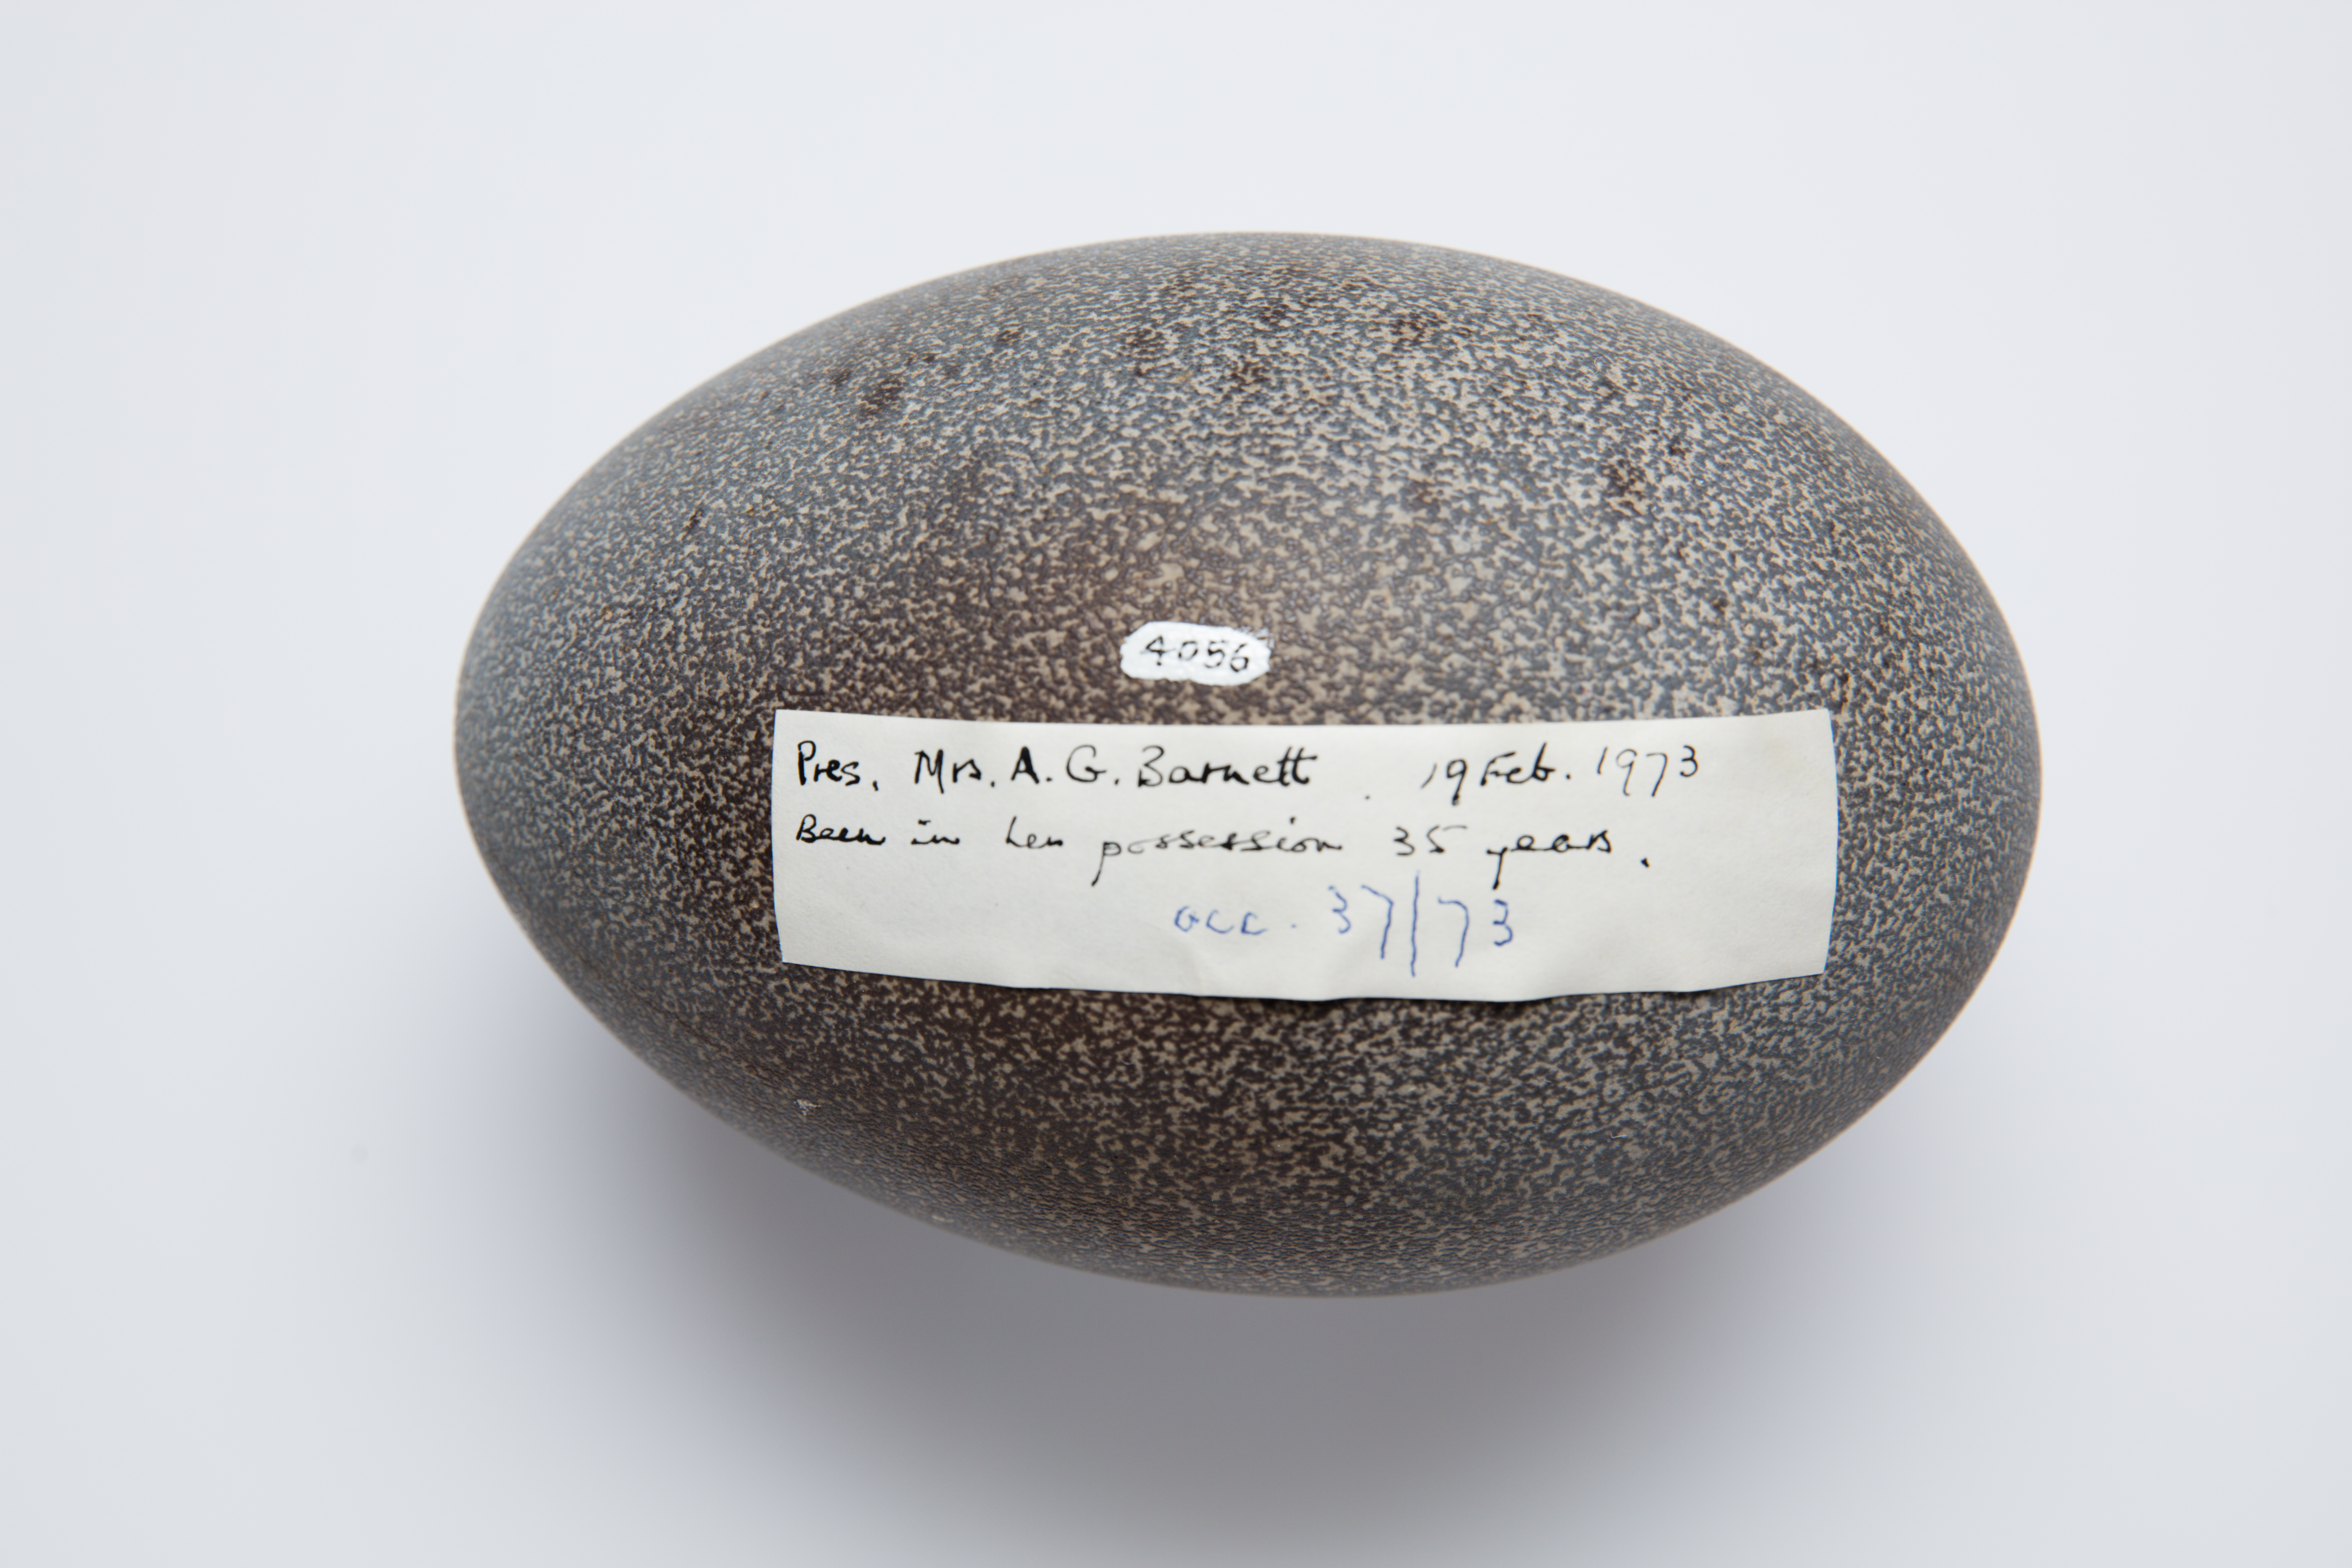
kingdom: Animalia
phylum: Chordata
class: Aves
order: Casuariiformes
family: Dromaiidae
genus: Dromaius
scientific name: Dromaius novaehollandiae
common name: Emu
